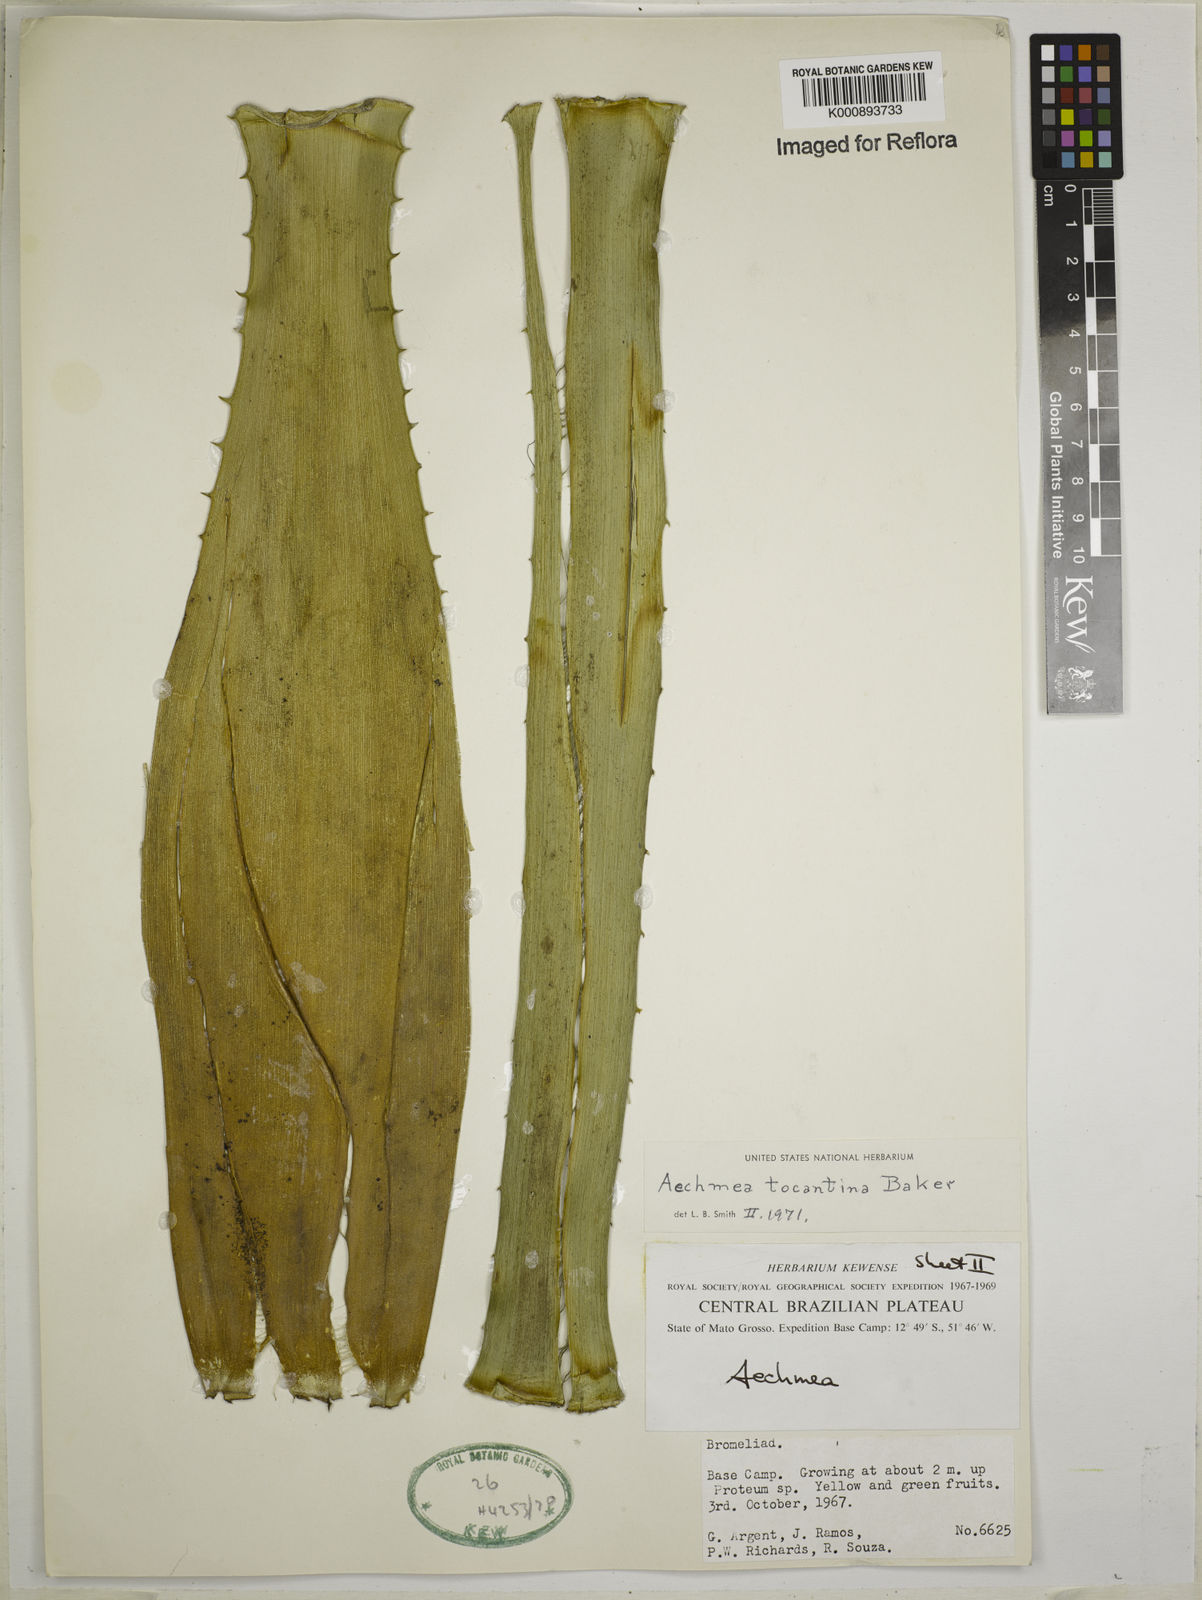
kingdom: Plantae
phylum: Tracheophyta
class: Liliopsida
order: Poales
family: Bromeliaceae
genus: Aechmea
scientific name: Aechmea tocantina
